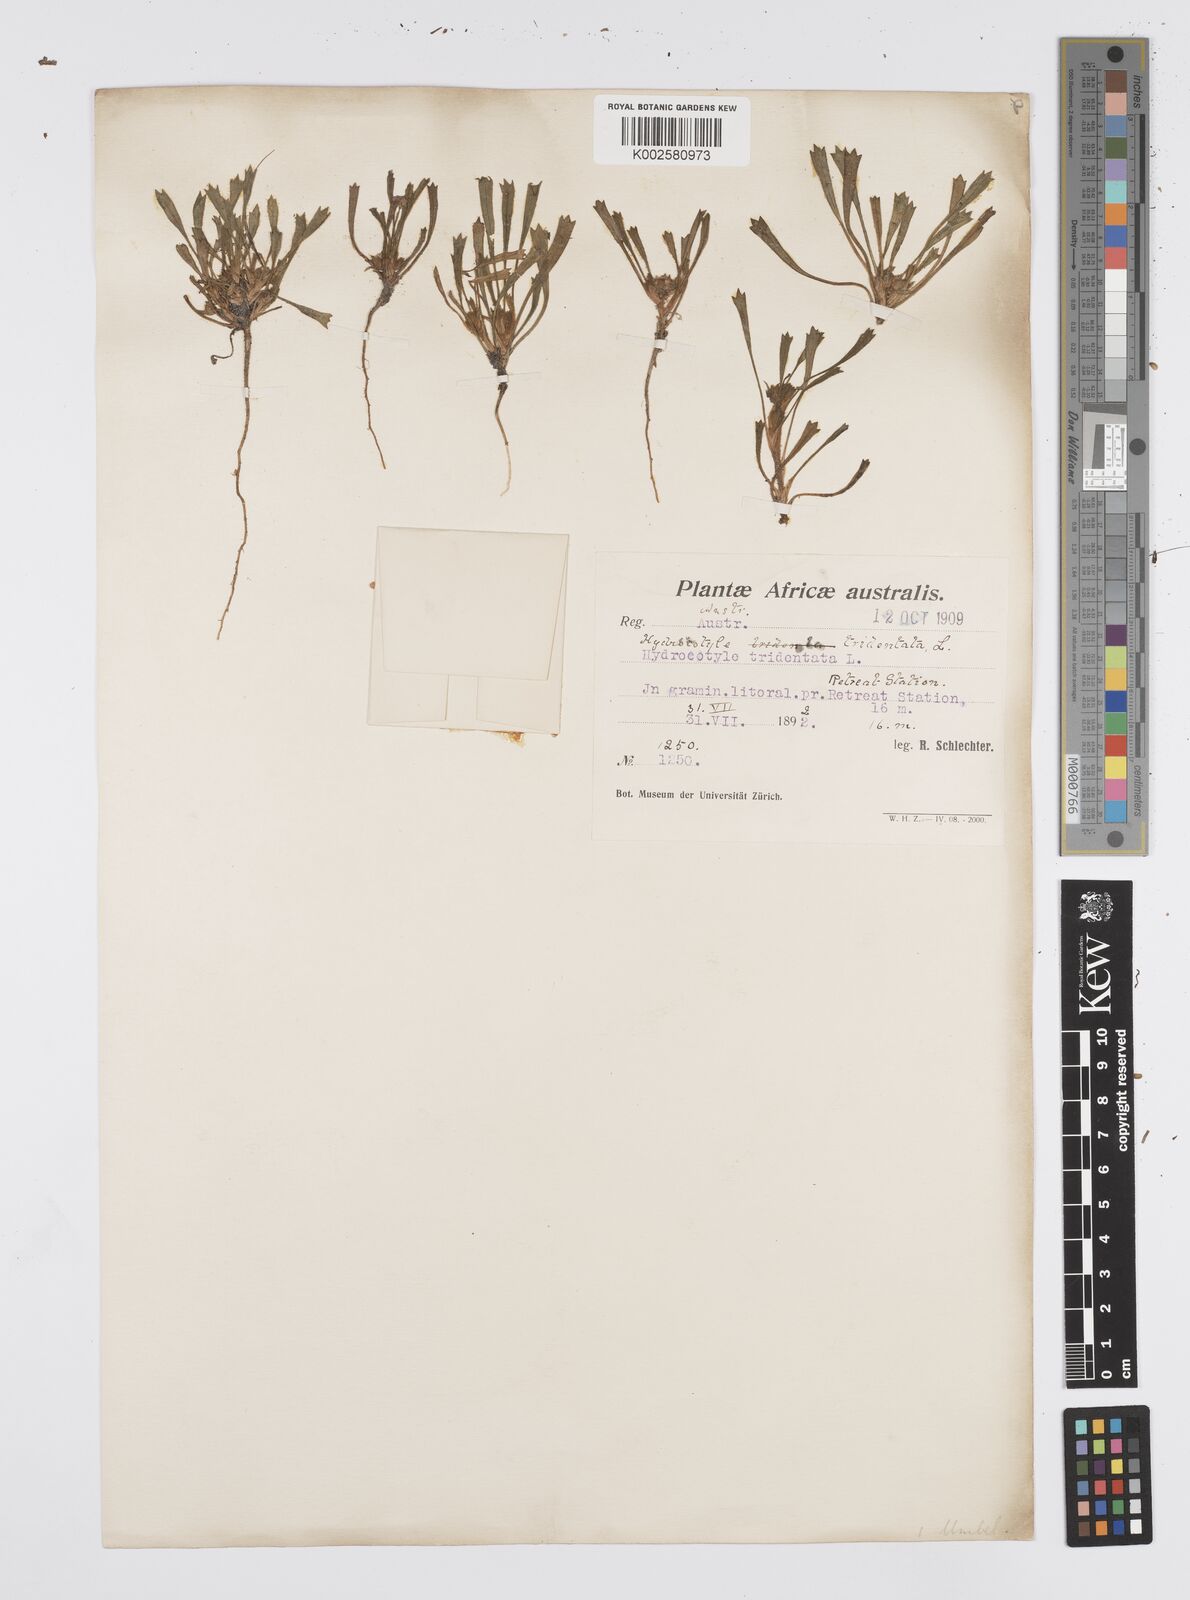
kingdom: Plantae
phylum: Tracheophyta
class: Magnoliopsida
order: Apiales
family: Apiaceae
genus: Centella
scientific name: Centella tridentata
